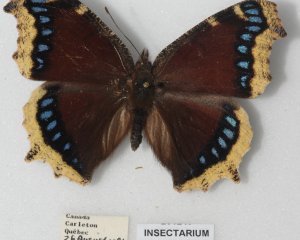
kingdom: Animalia
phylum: Arthropoda
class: Insecta
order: Lepidoptera
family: Nymphalidae
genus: Nymphalis
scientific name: Nymphalis antiopa
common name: Mourning Cloak
